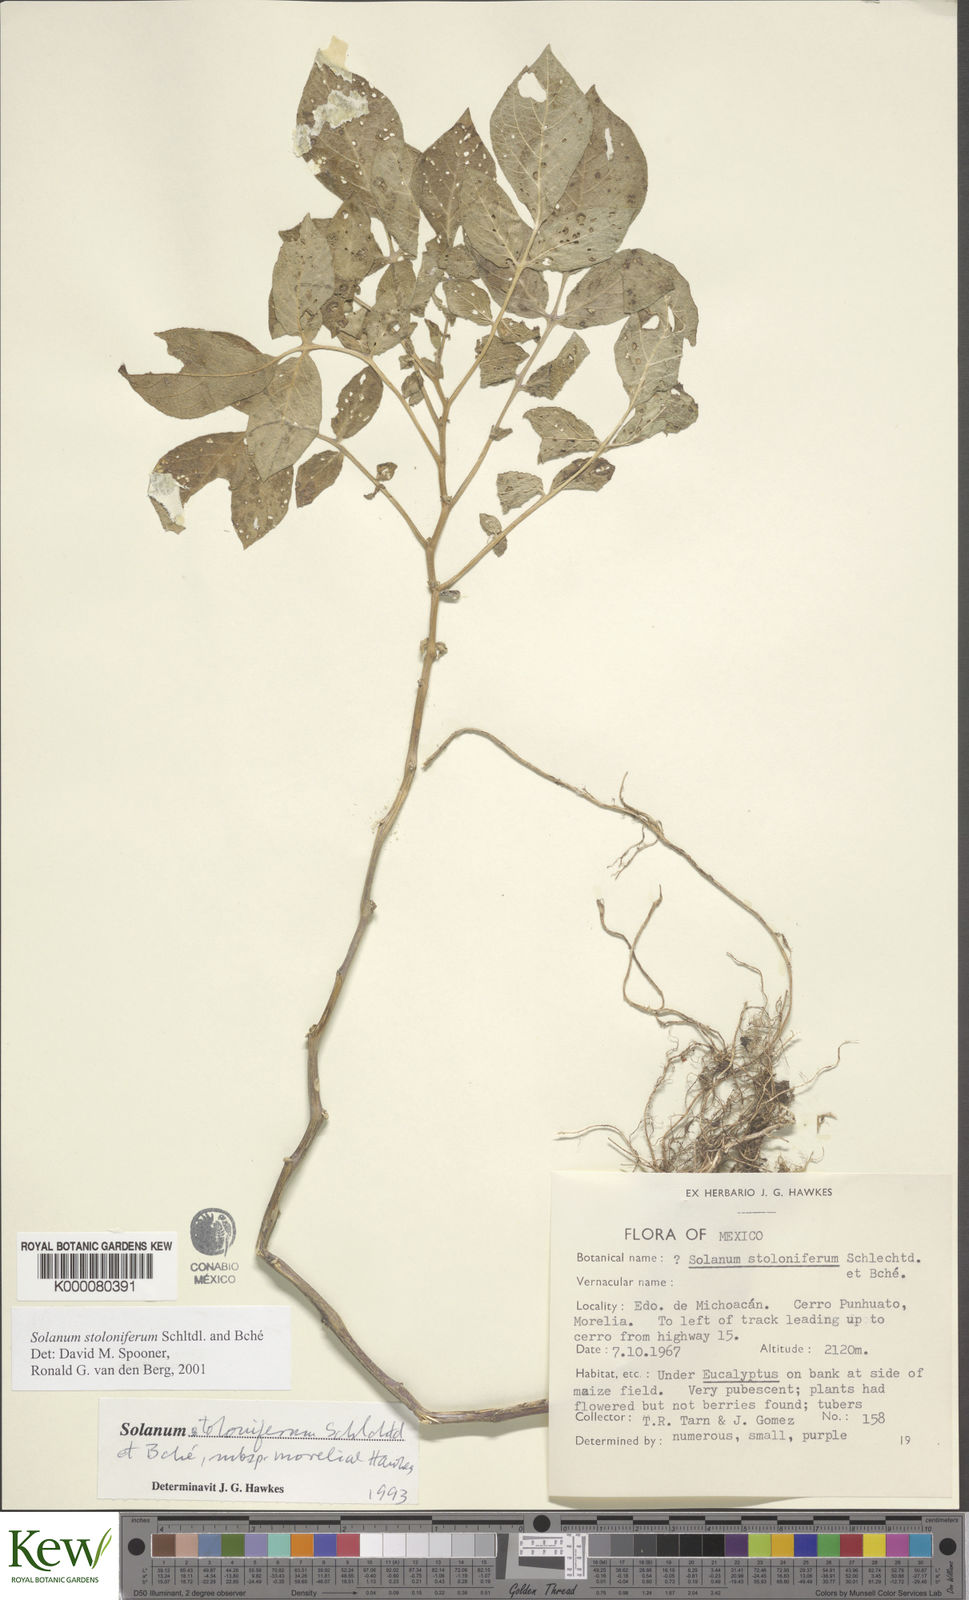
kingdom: Plantae
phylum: Tracheophyta
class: Magnoliopsida
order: Solanales
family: Solanaceae
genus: Solanum
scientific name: Solanum stoloniferum
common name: Fendler's nighshade
